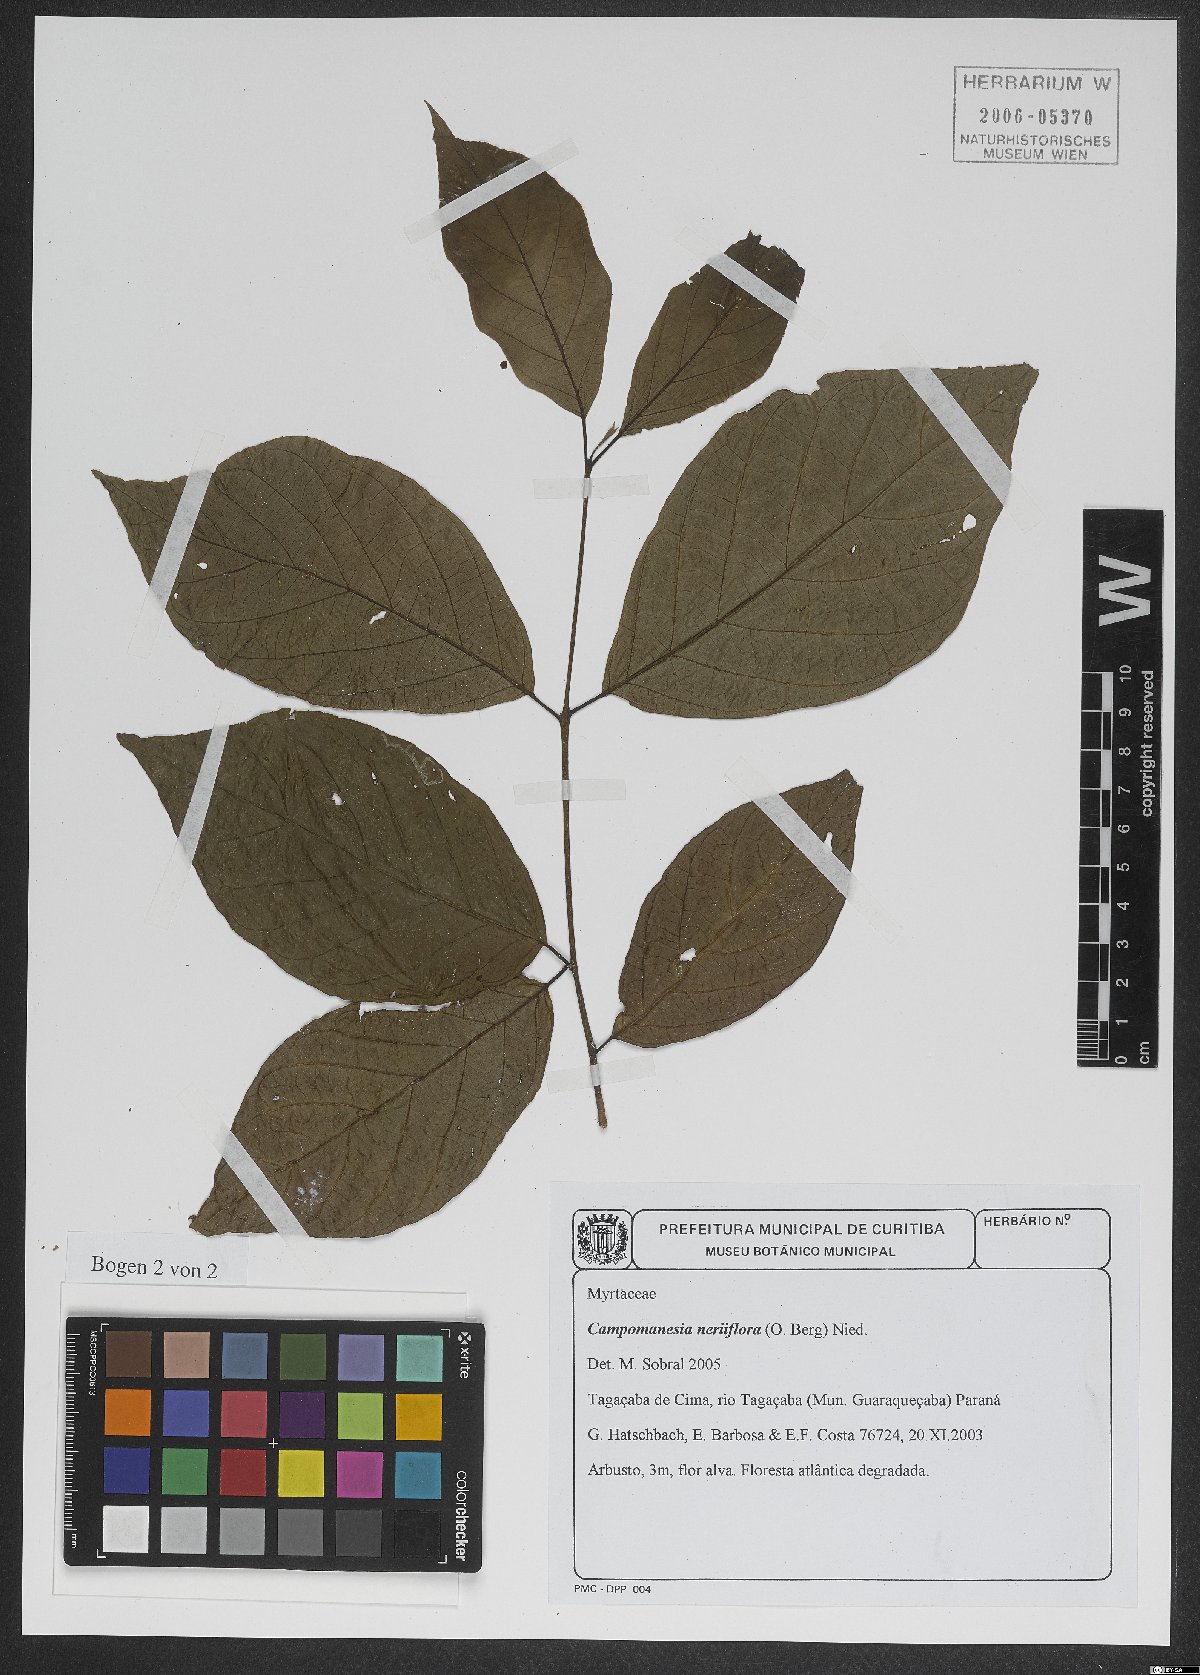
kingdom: Plantae
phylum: Tracheophyta
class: Magnoliopsida
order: Myrtales
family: Myrtaceae
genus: Campomanesia
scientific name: Campomanesia neriiflora
